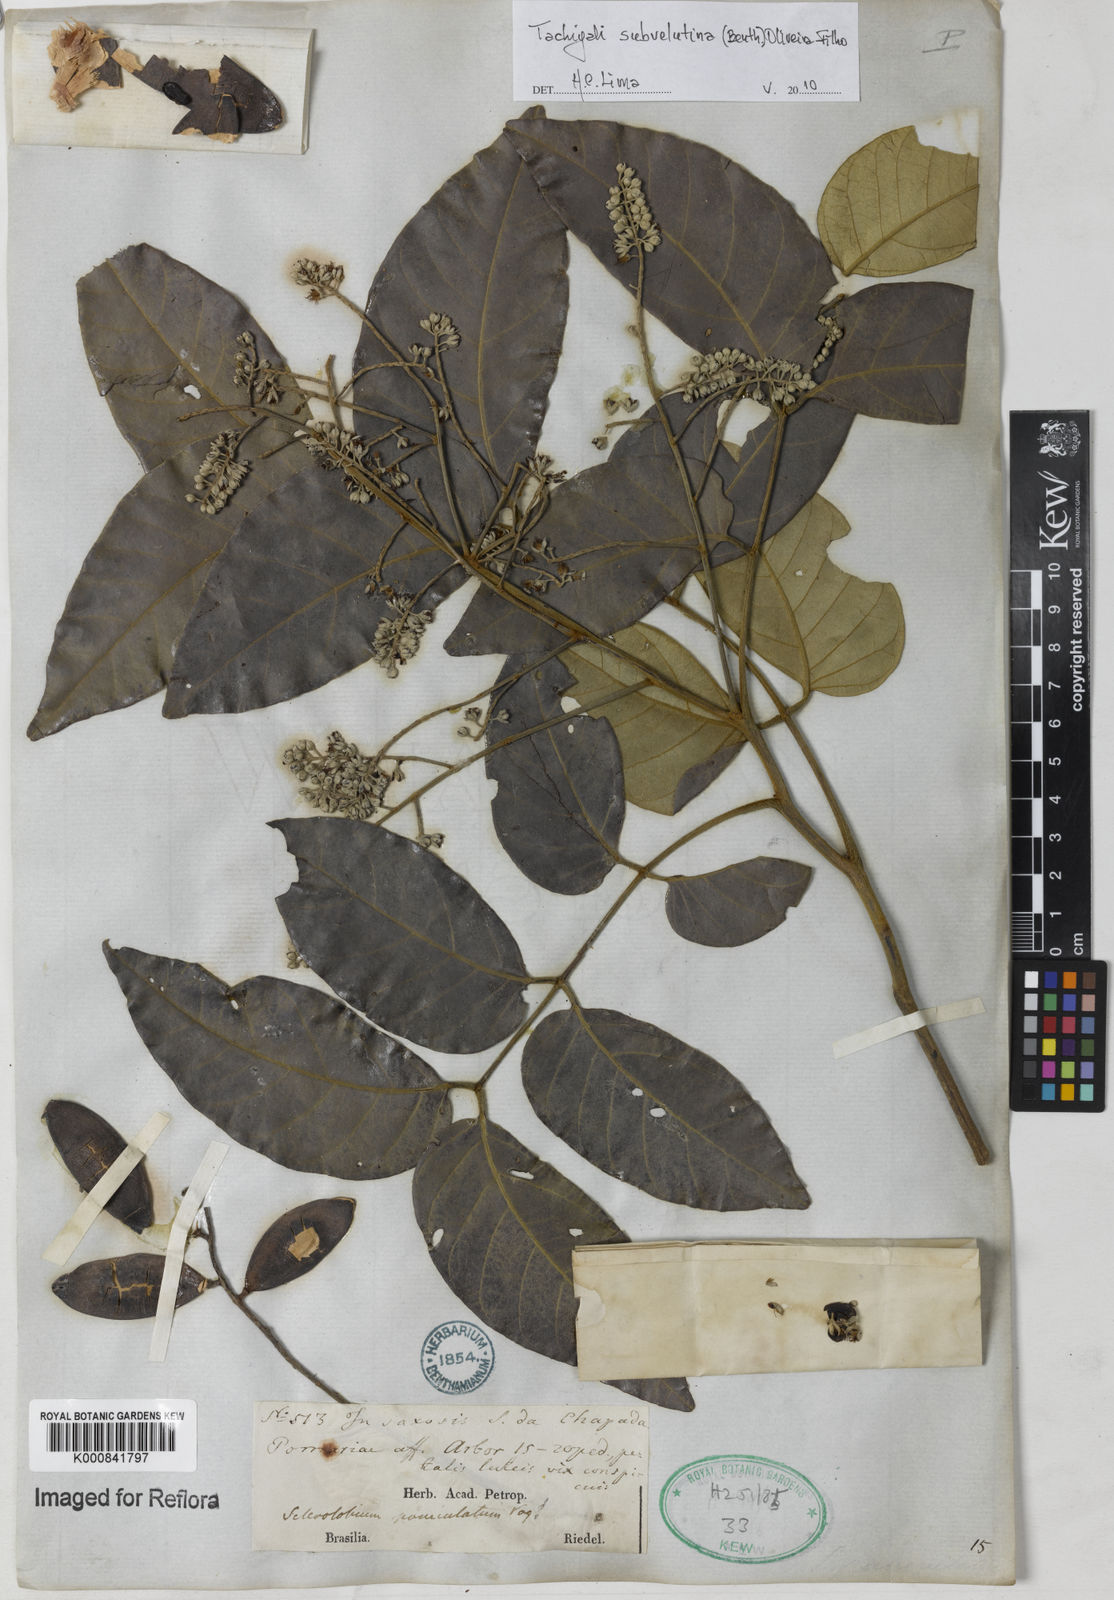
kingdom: Plantae
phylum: Tracheophyta
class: Magnoliopsida
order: Fabales
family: Fabaceae
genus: Tachigali
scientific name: Tachigali subvelutina
